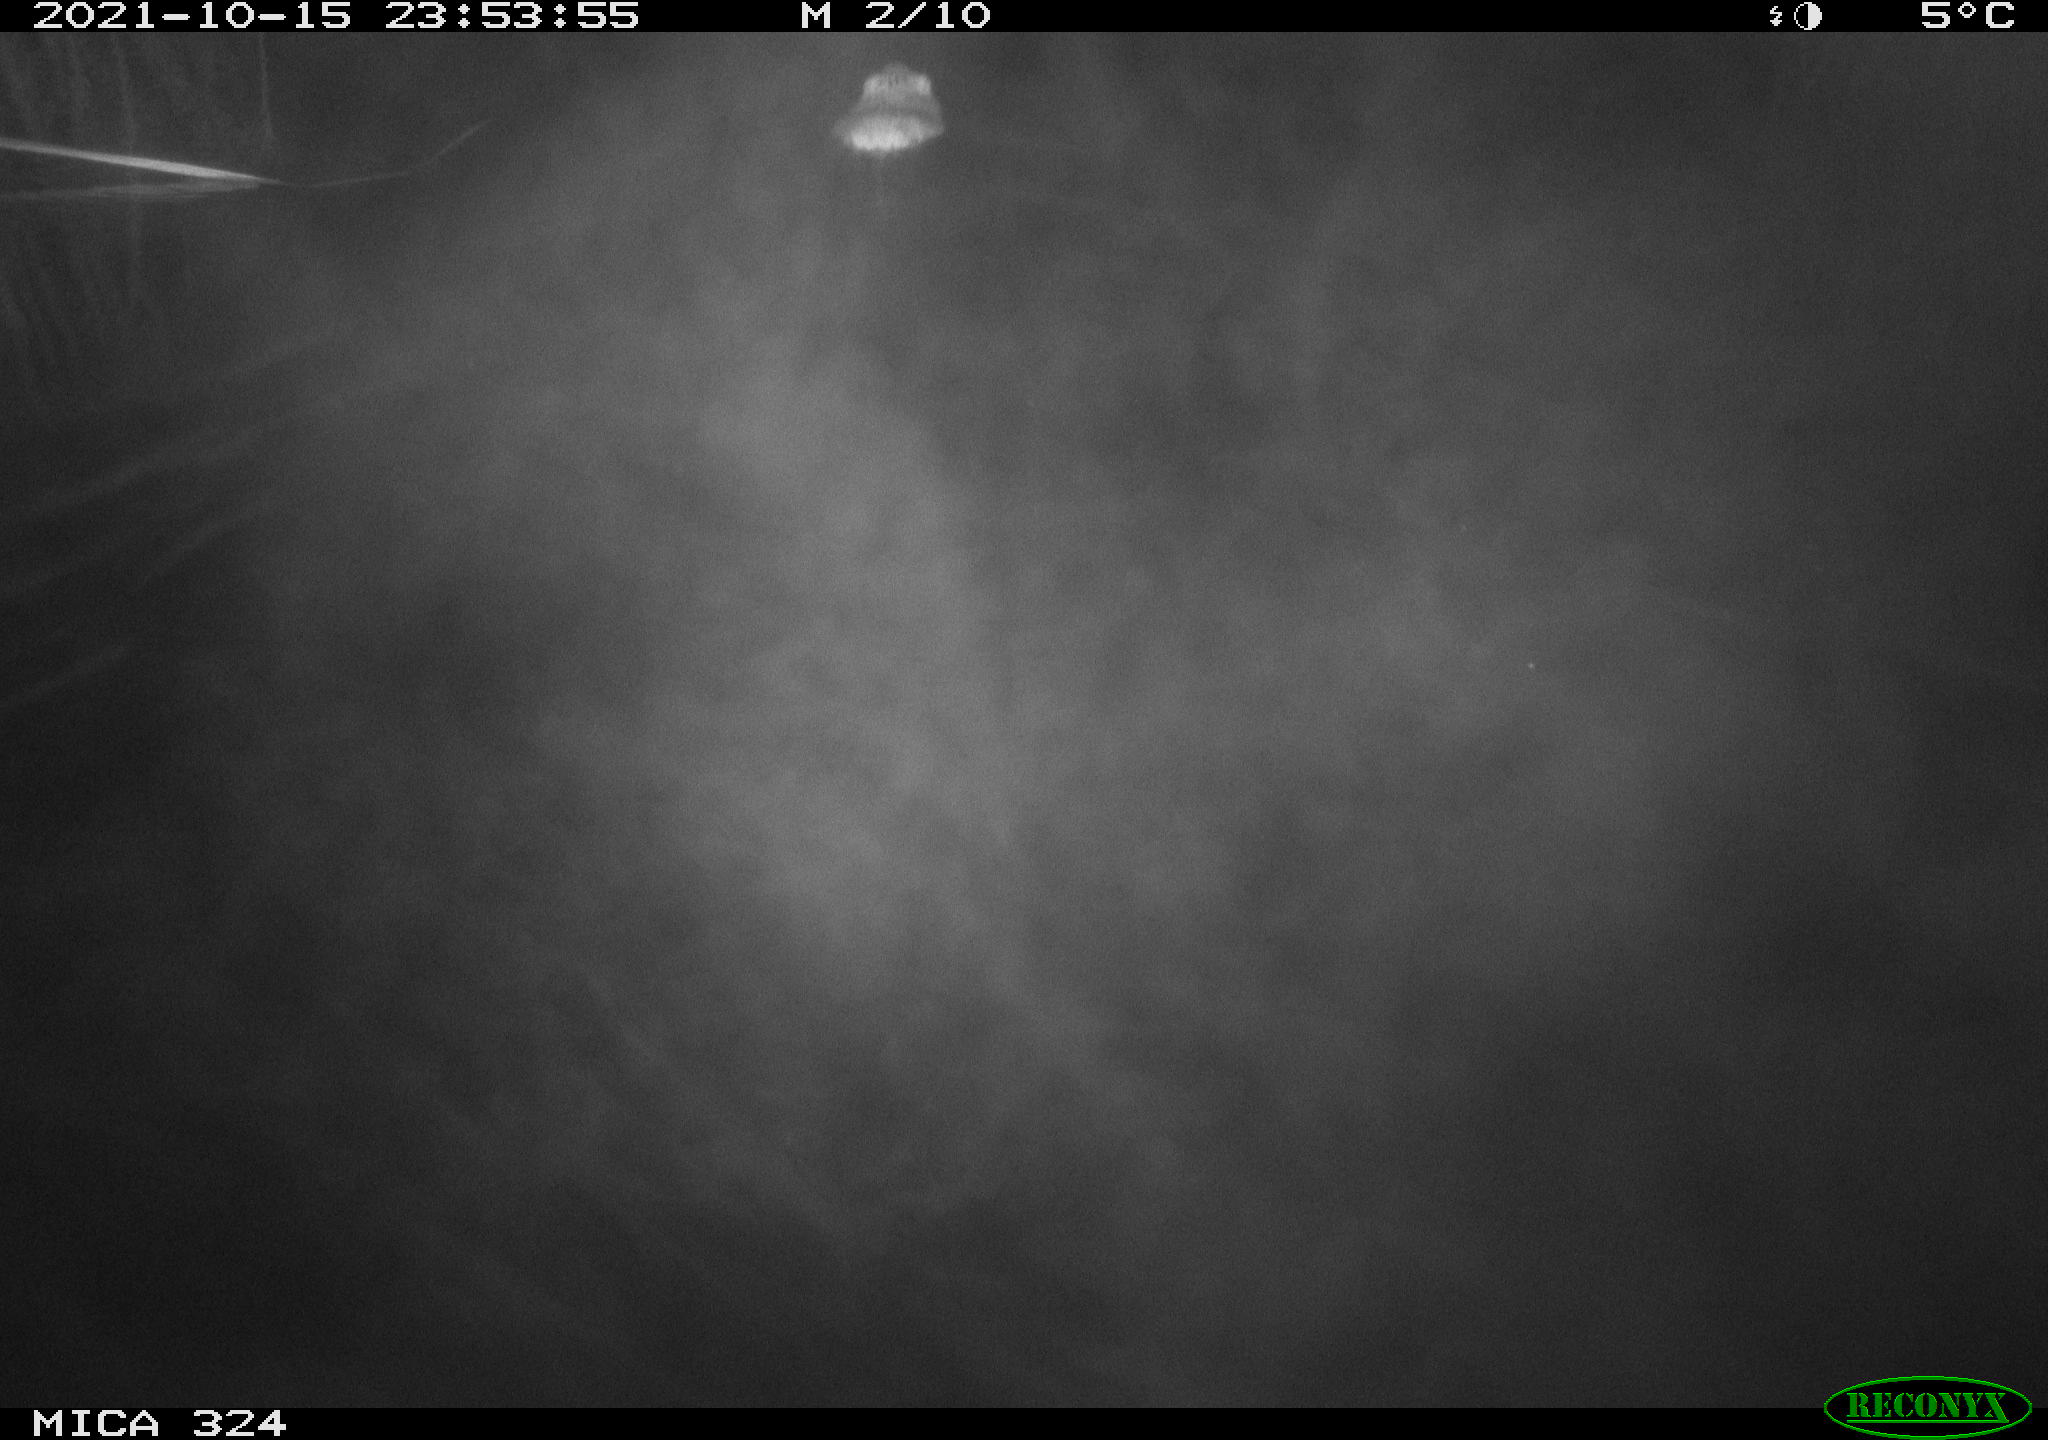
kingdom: Animalia
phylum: Chordata
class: Mammalia
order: Rodentia
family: Cricetidae
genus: Ondatra
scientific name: Ondatra zibethicus
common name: Muskrat
